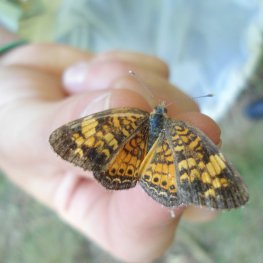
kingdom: Animalia
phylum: Arthropoda
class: Insecta
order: Lepidoptera
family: Nymphalidae
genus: Phyciodes
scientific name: Phyciodes tharos
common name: Pearl Crescent
